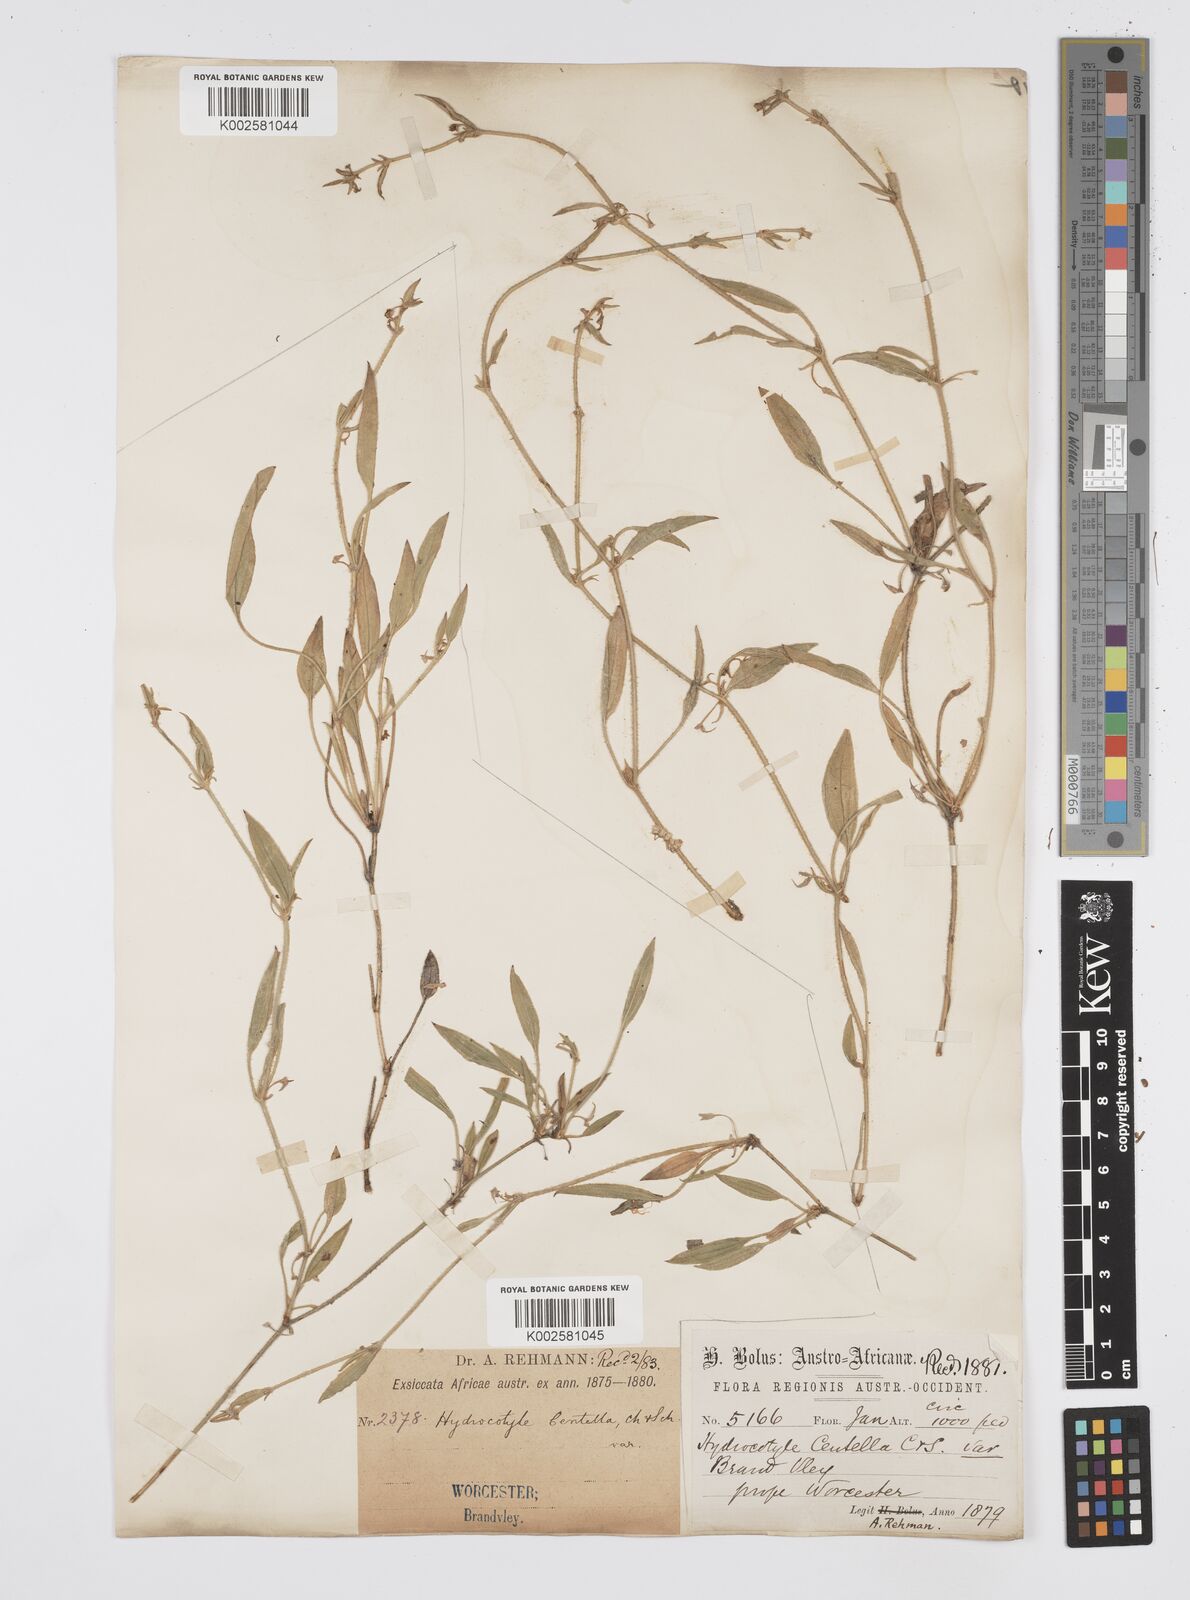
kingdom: Plantae
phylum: Tracheophyta
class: Magnoliopsida
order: Apiales
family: Apiaceae
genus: Centella
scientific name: Centella glabrata
